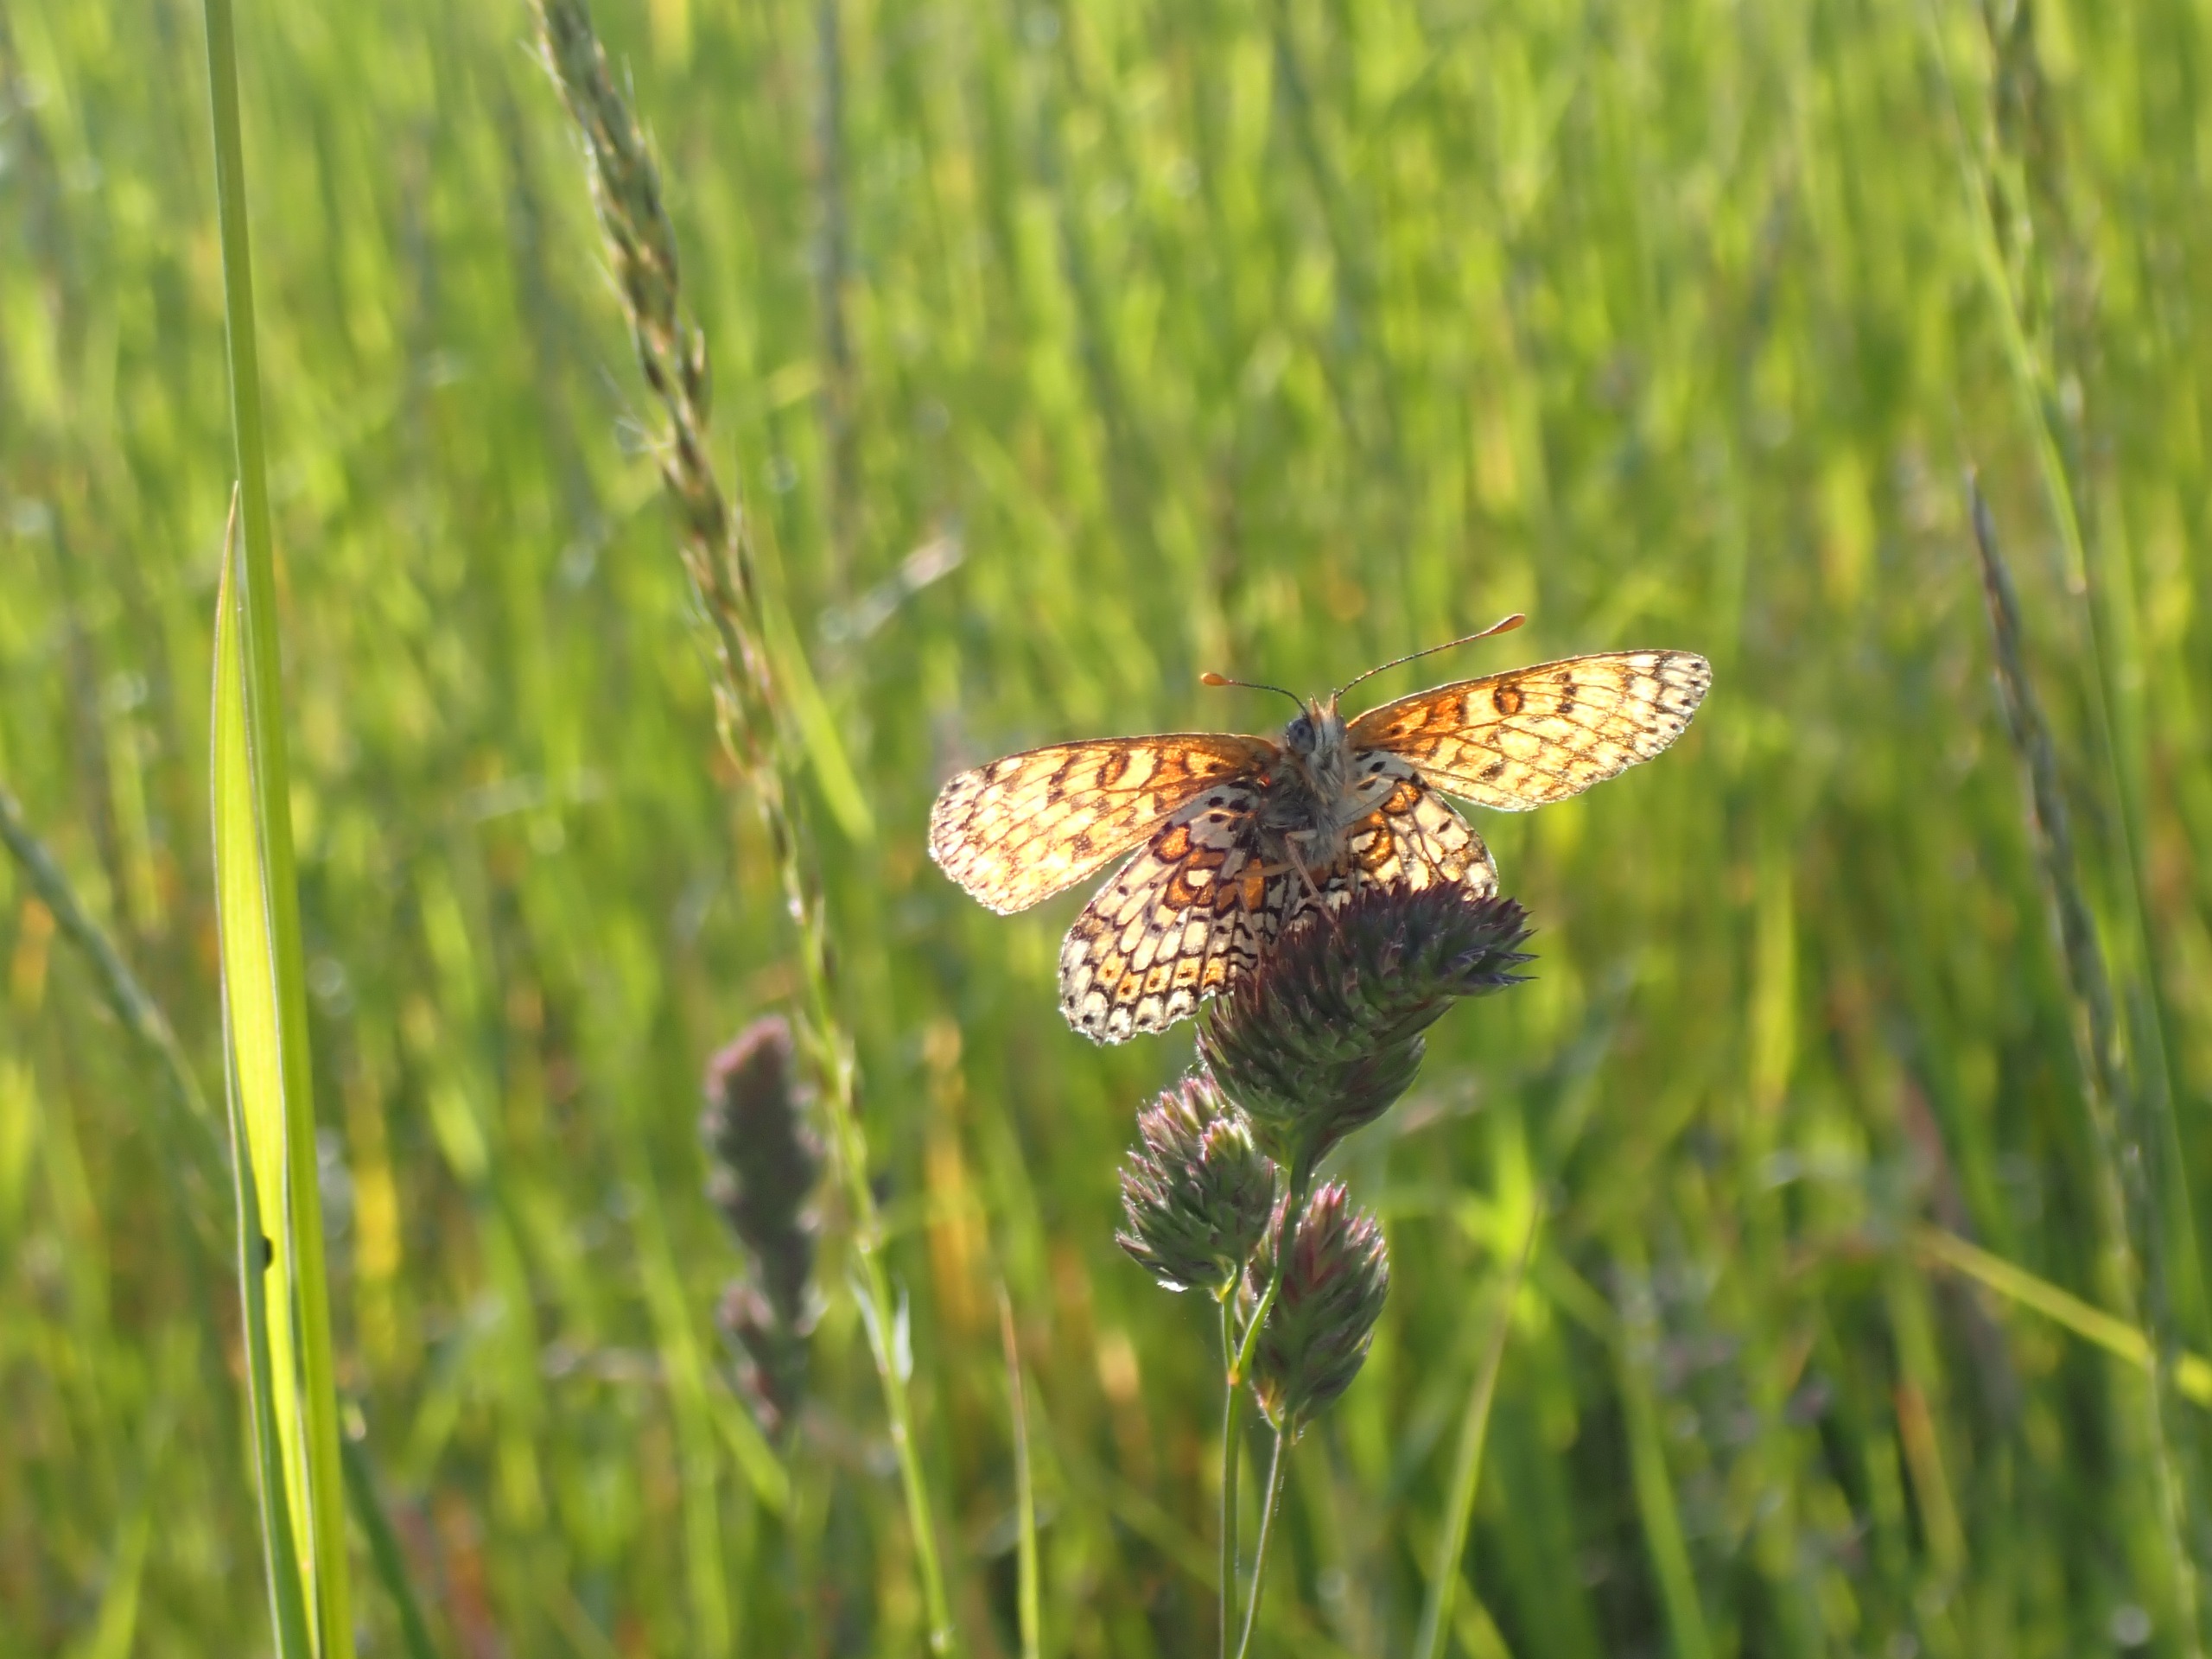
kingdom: Animalia
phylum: Arthropoda
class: Insecta
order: Lepidoptera
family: Nymphalidae
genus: Melitaea
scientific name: Melitaea cinxia
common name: Okkergul pletvinge
